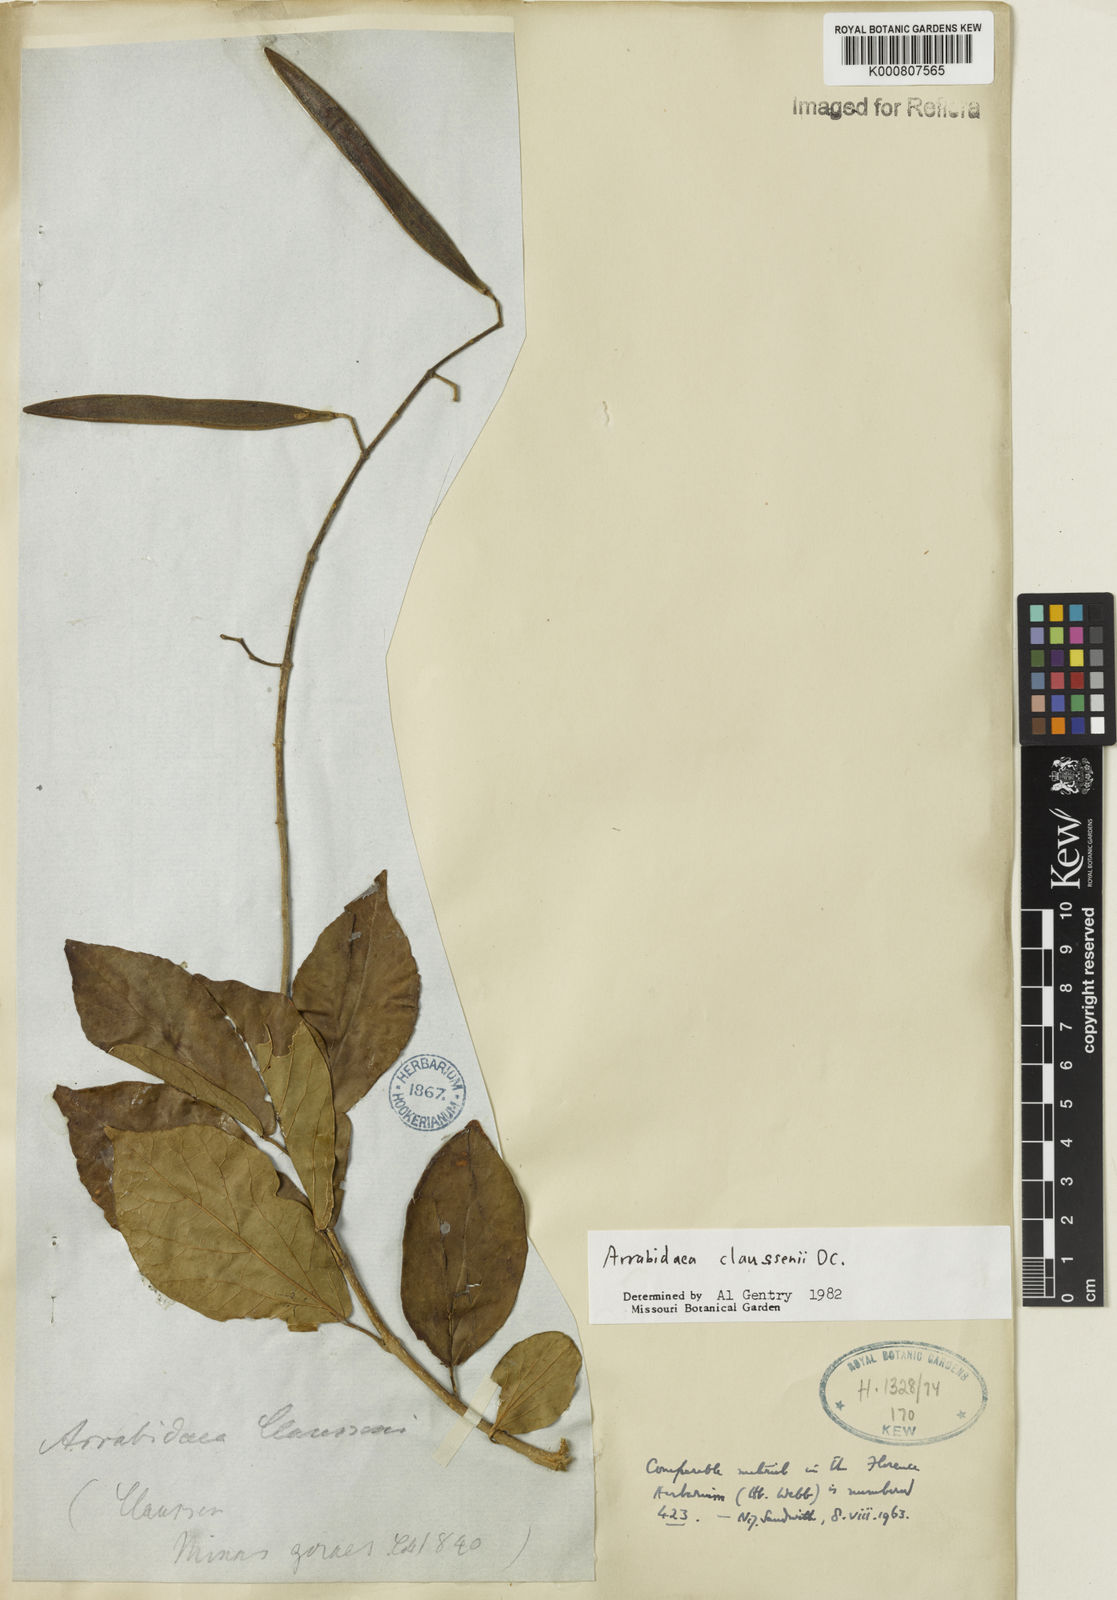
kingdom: Plantae
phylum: Tracheophyta
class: Magnoliopsida
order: Lamiales
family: Bignoniaceae
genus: Xylophragma
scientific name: Xylophragma claussenii
